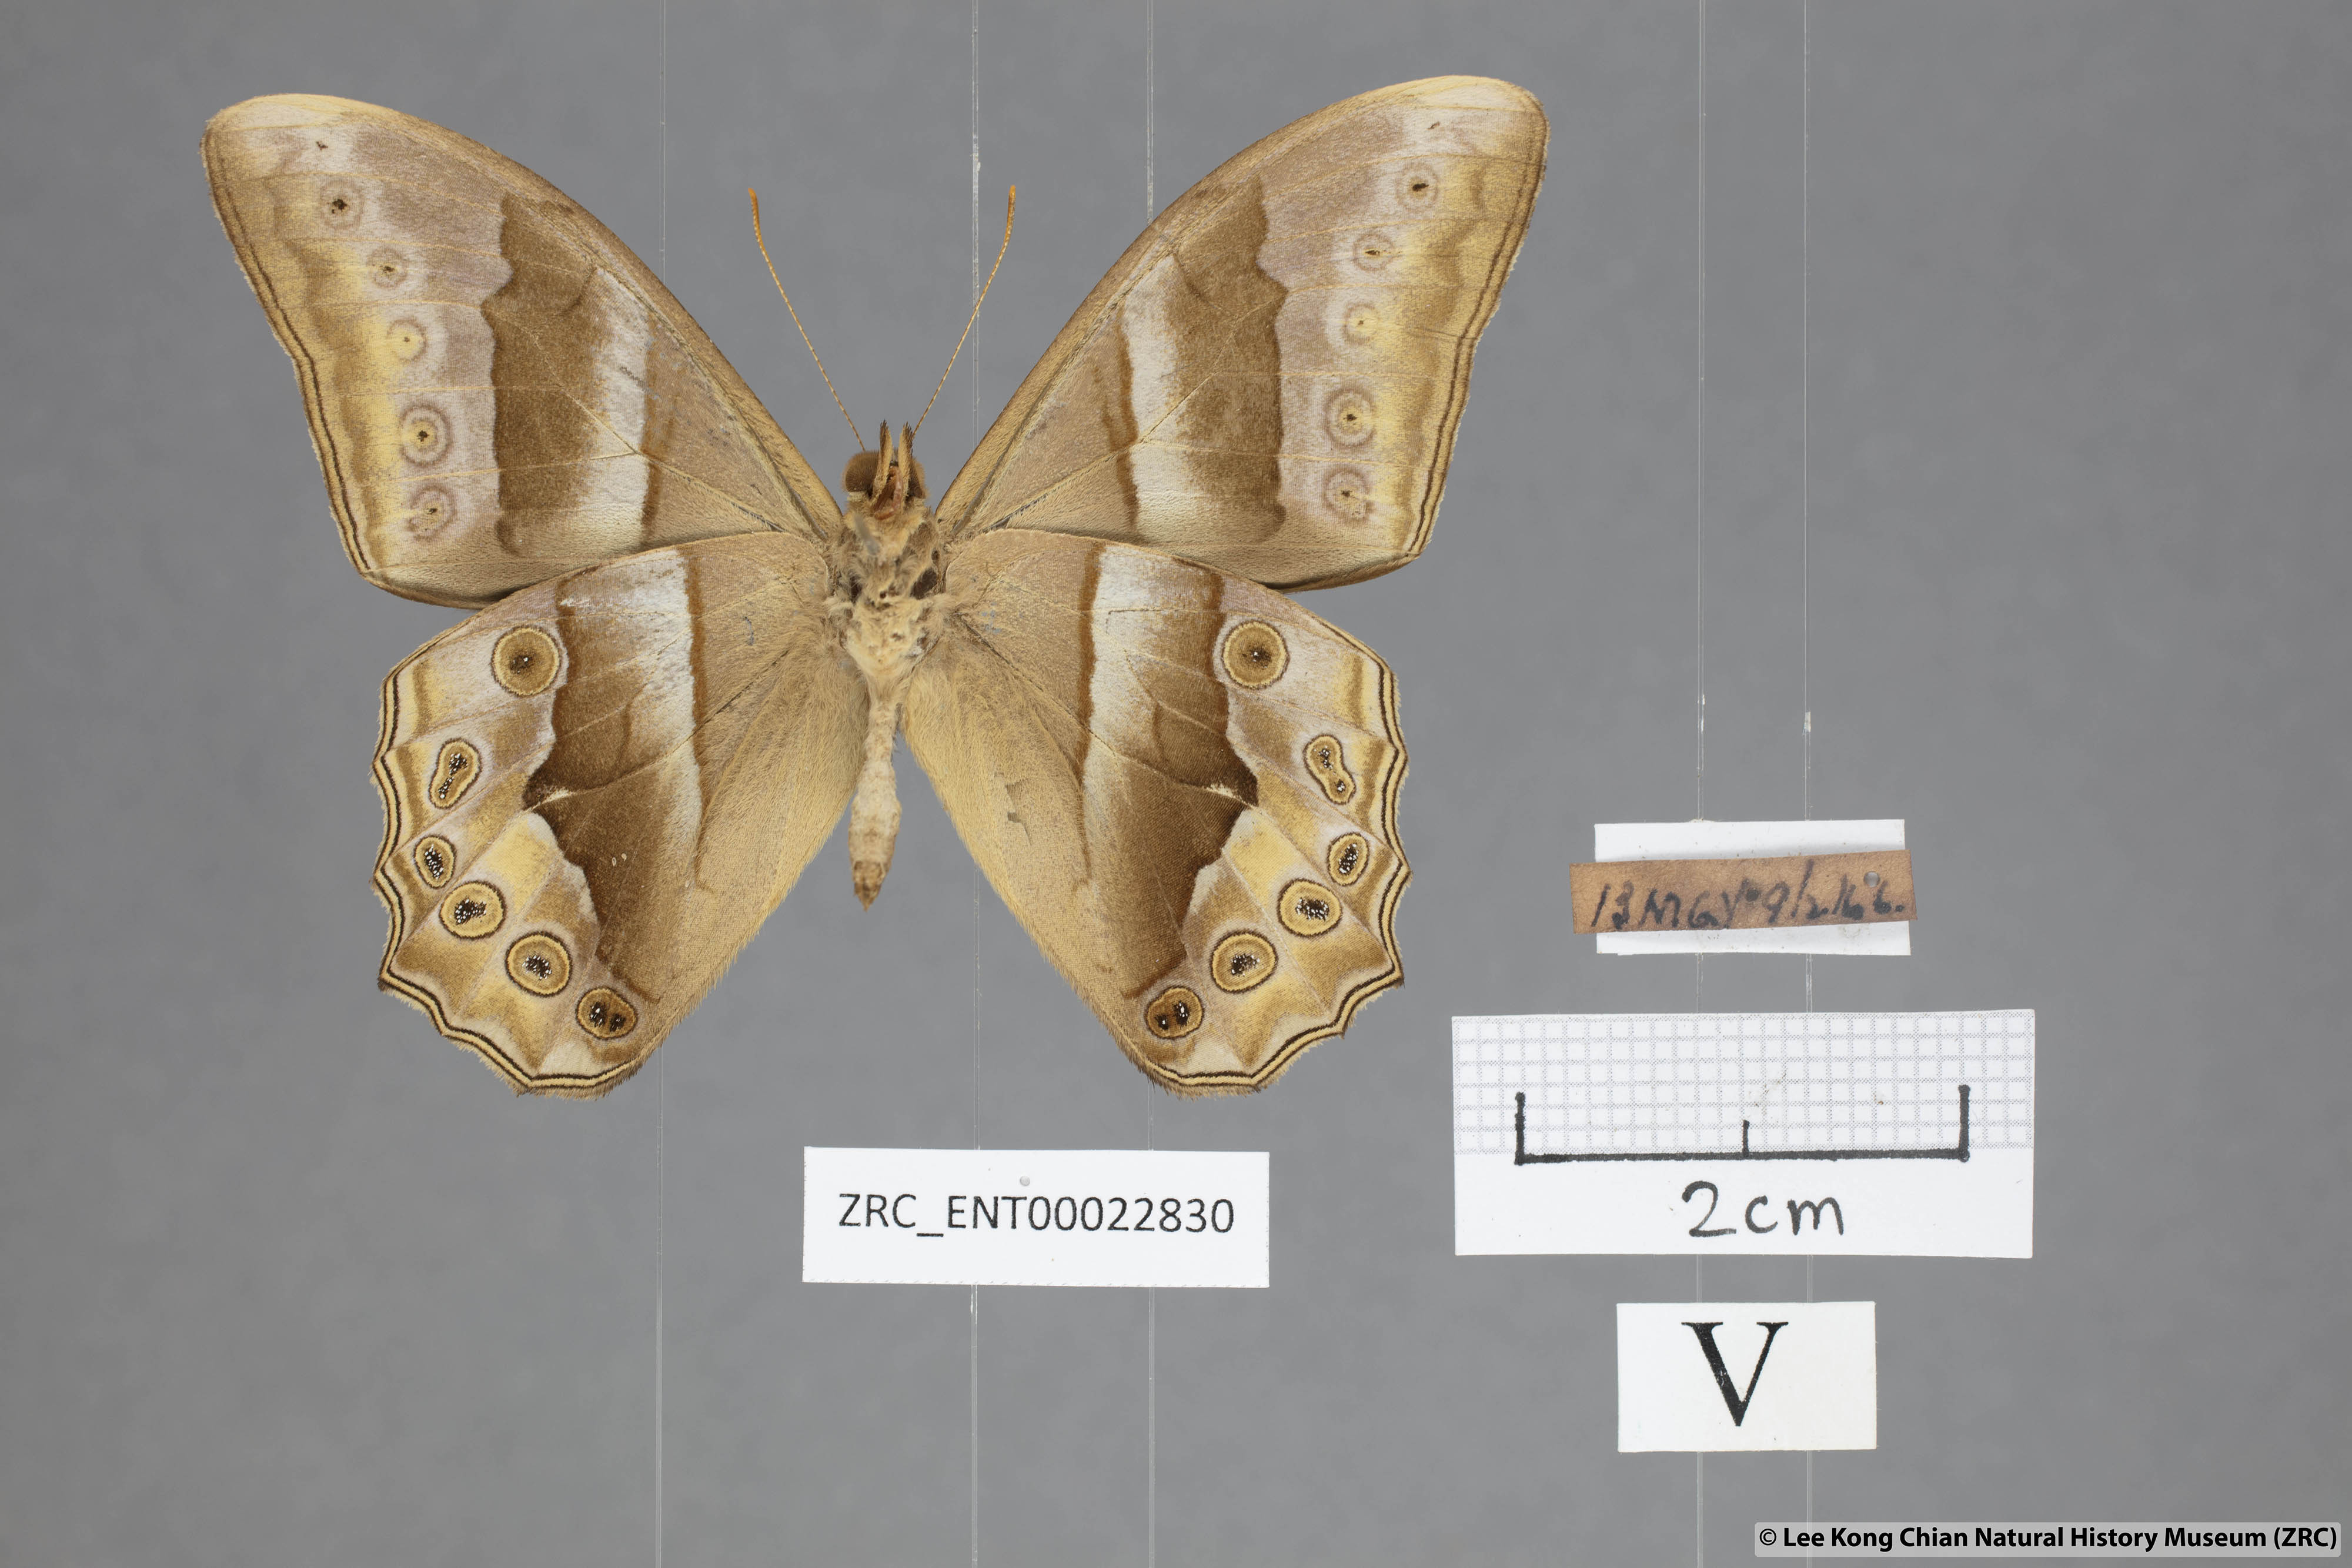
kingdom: Animalia
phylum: Arthropoda
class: Insecta
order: Lepidoptera
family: Nymphalidae
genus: Lethe
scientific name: Lethe mekara
